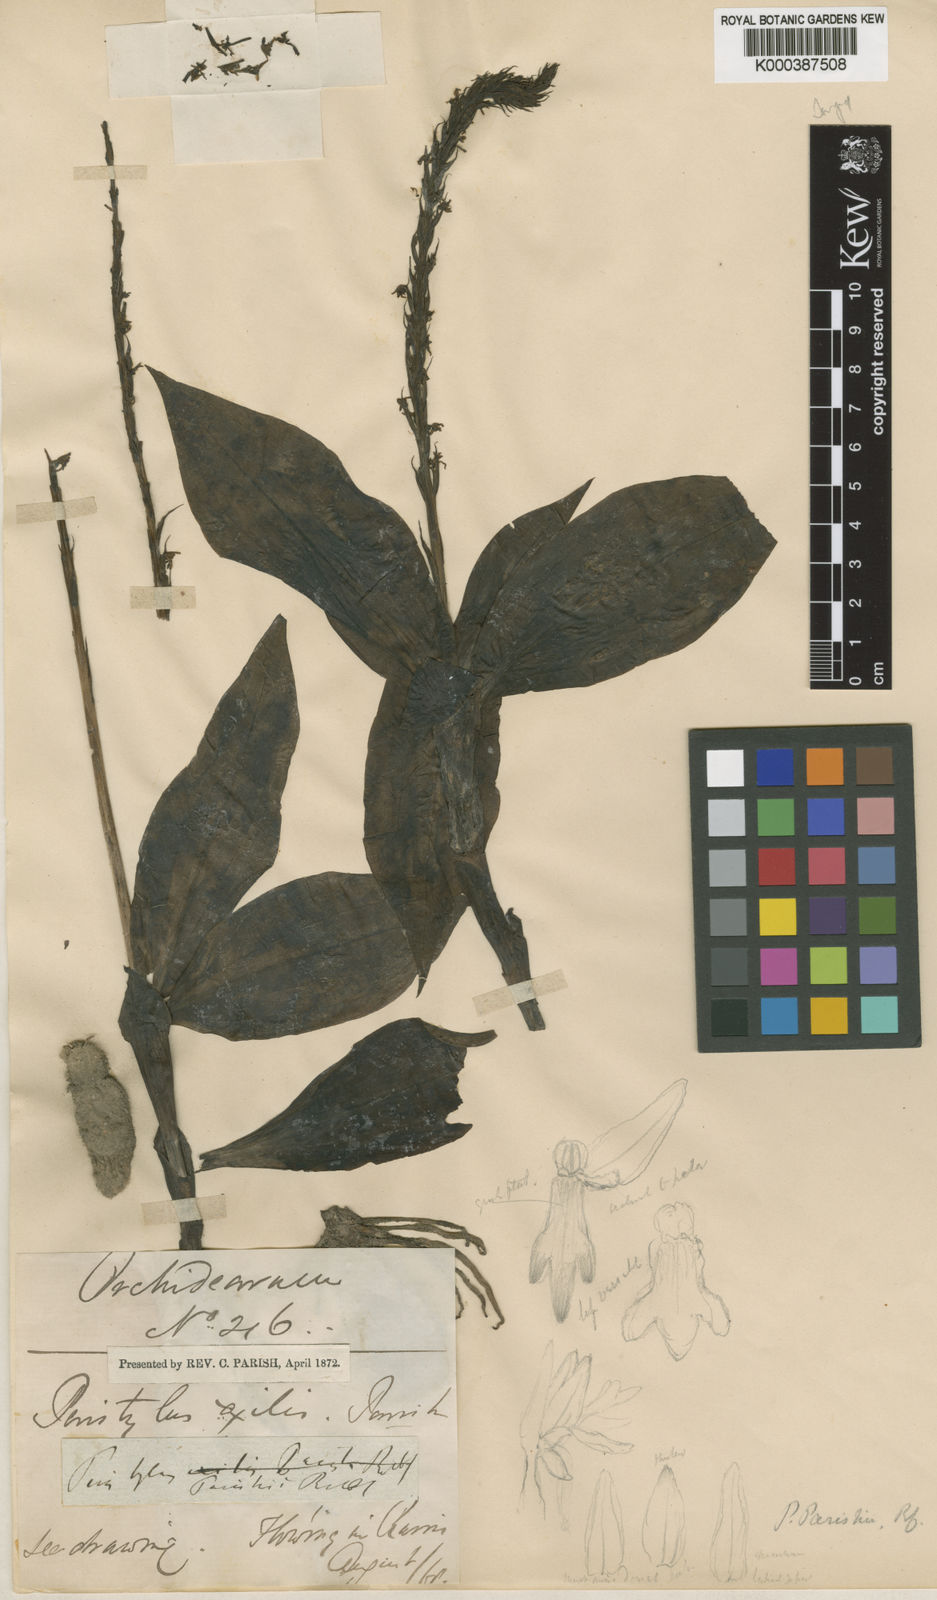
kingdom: Plantae
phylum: Tracheophyta
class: Liliopsida
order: Asparagales
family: Orchidaceae
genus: Peristylus
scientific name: Peristylus parishii
